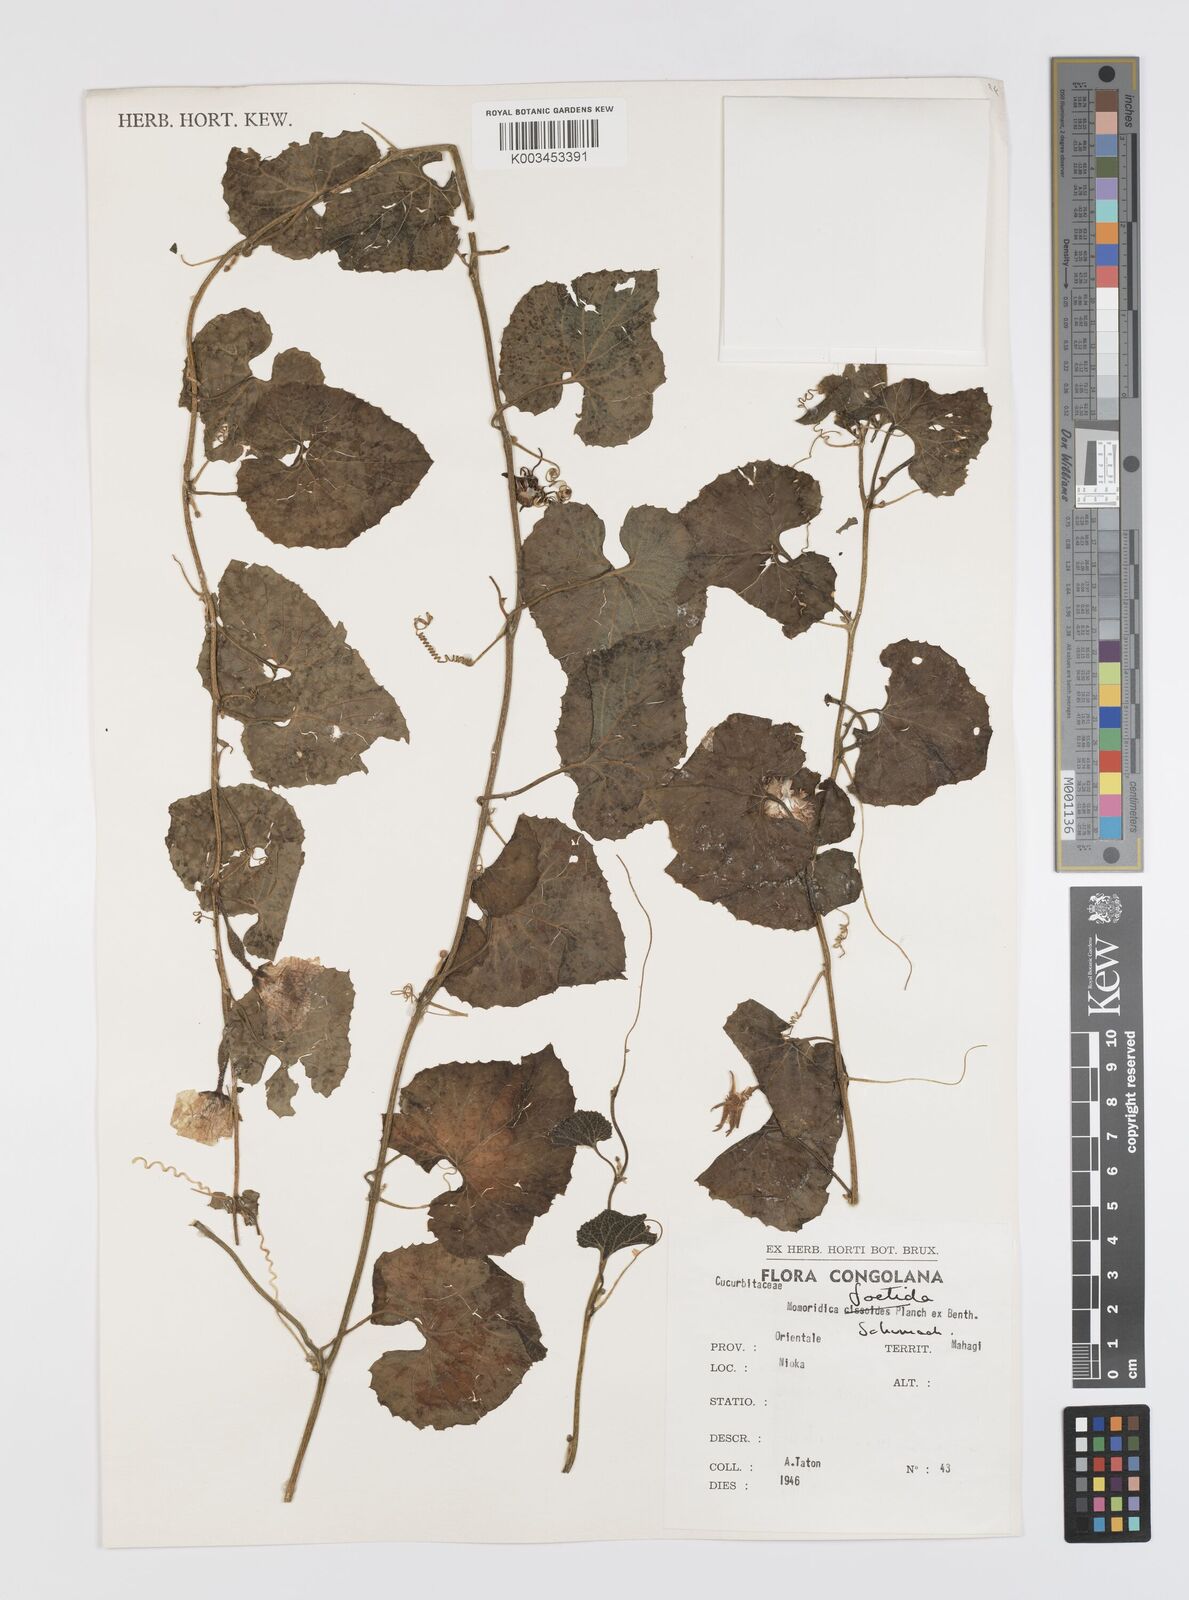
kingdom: Plantae
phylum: Tracheophyta
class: Magnoliopsida
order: Cucurbitales
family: Cucurbitaceae
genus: Momordica
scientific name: Momordica foetida
